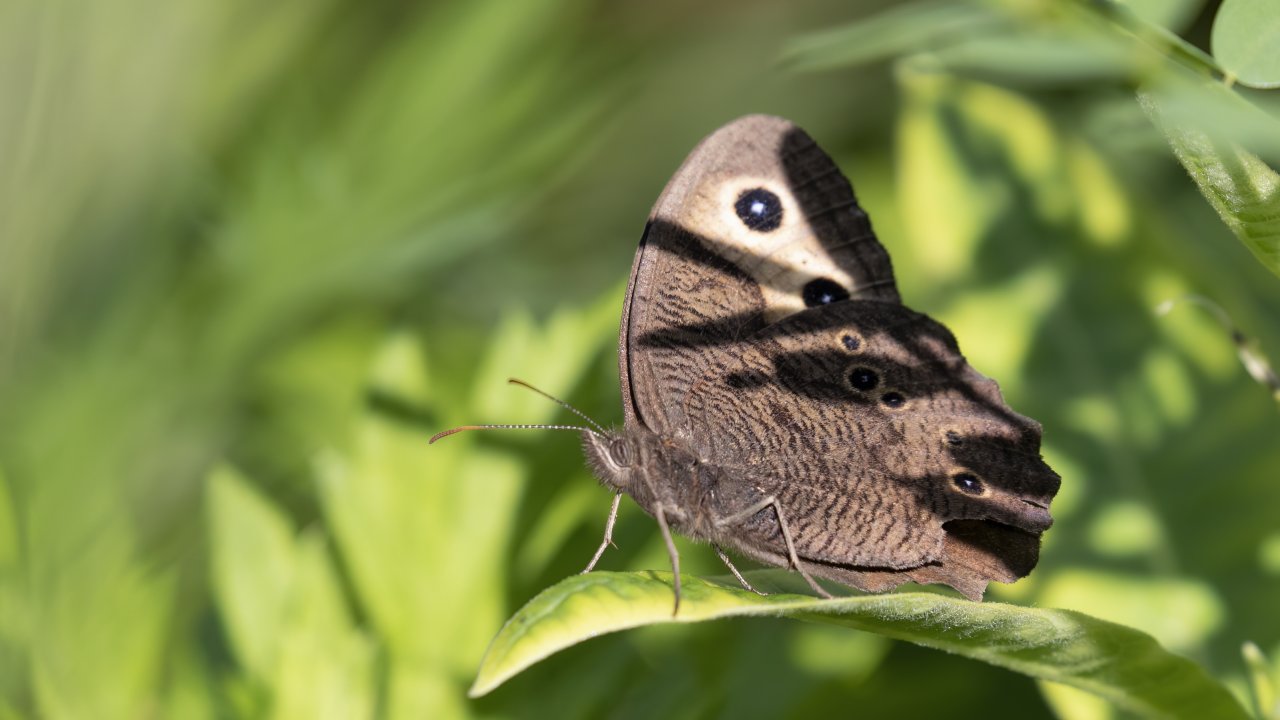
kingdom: Animalia
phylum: Arthropoda
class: Insecta
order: Lepidoptera
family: Nymphalidae
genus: Cercyonis
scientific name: Cercyonis pegala
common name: Common Wood-Nymph
